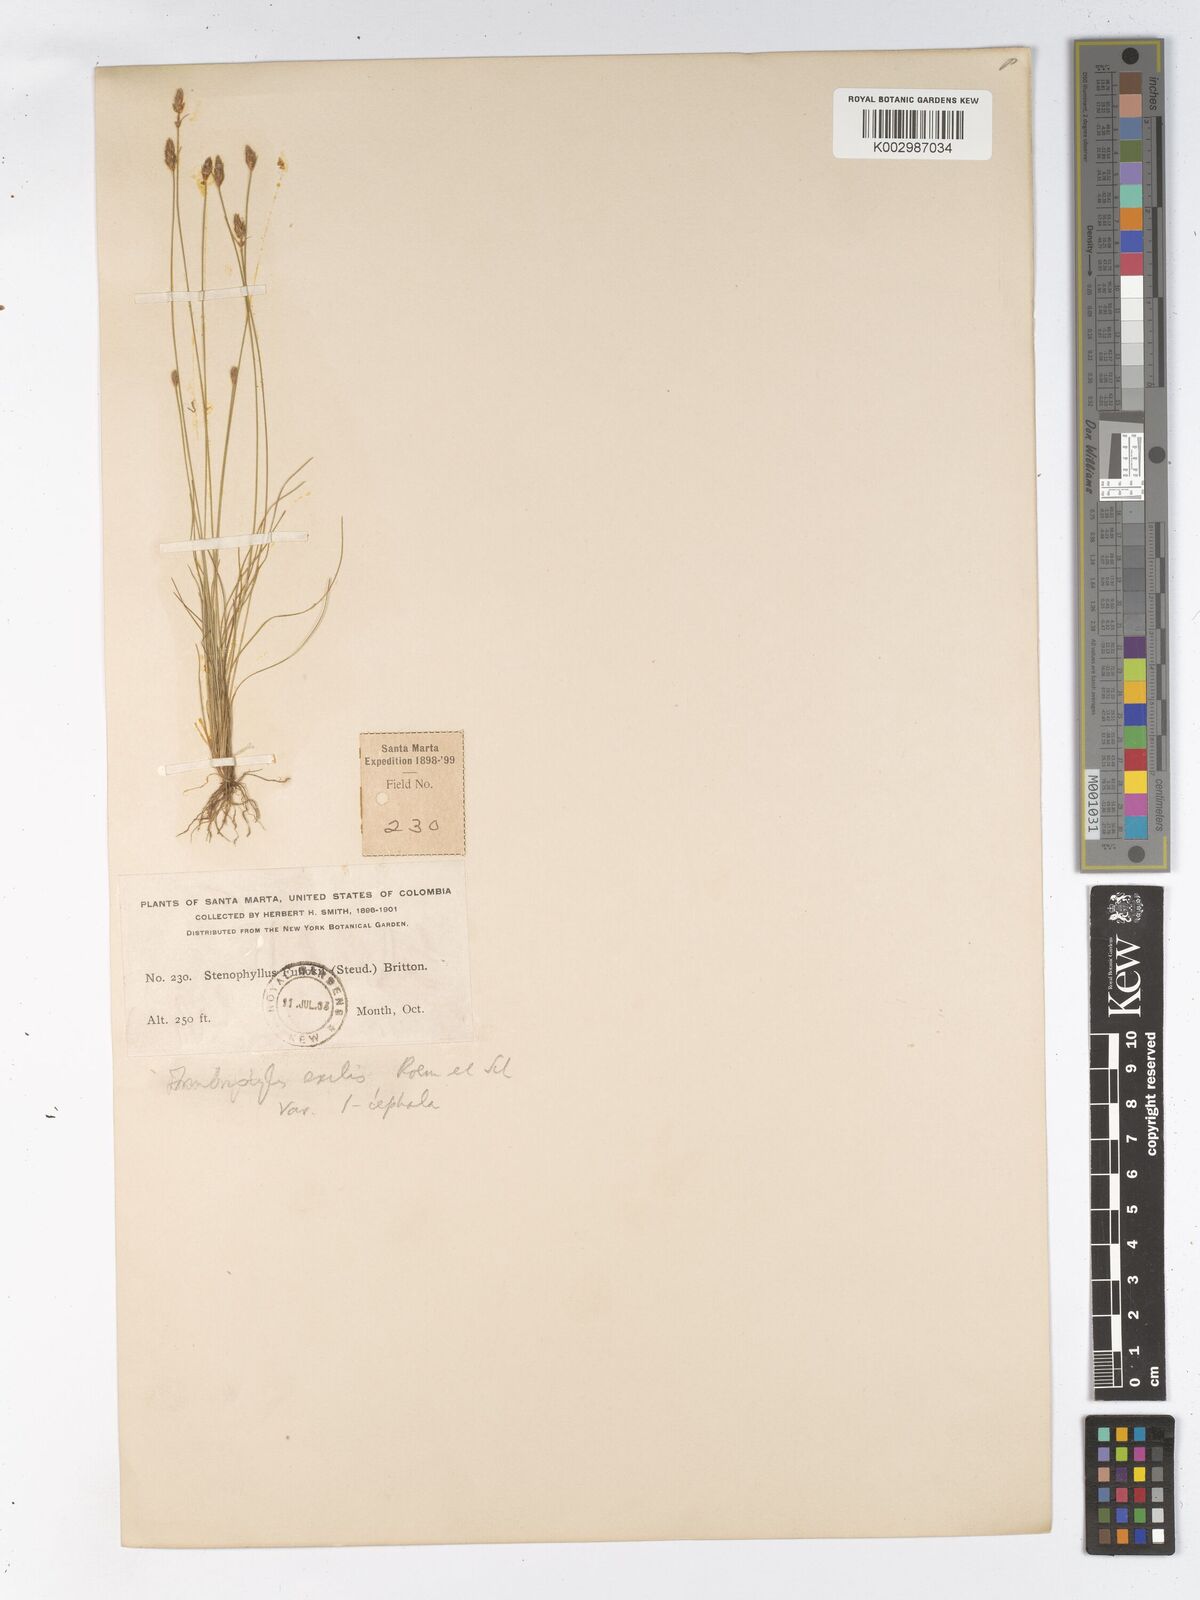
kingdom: Plantae
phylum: Tracheophyta
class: Liliopsida
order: Poales
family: Cyperaceae
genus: Bulbostylis
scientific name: Bulbostylis hispidula
